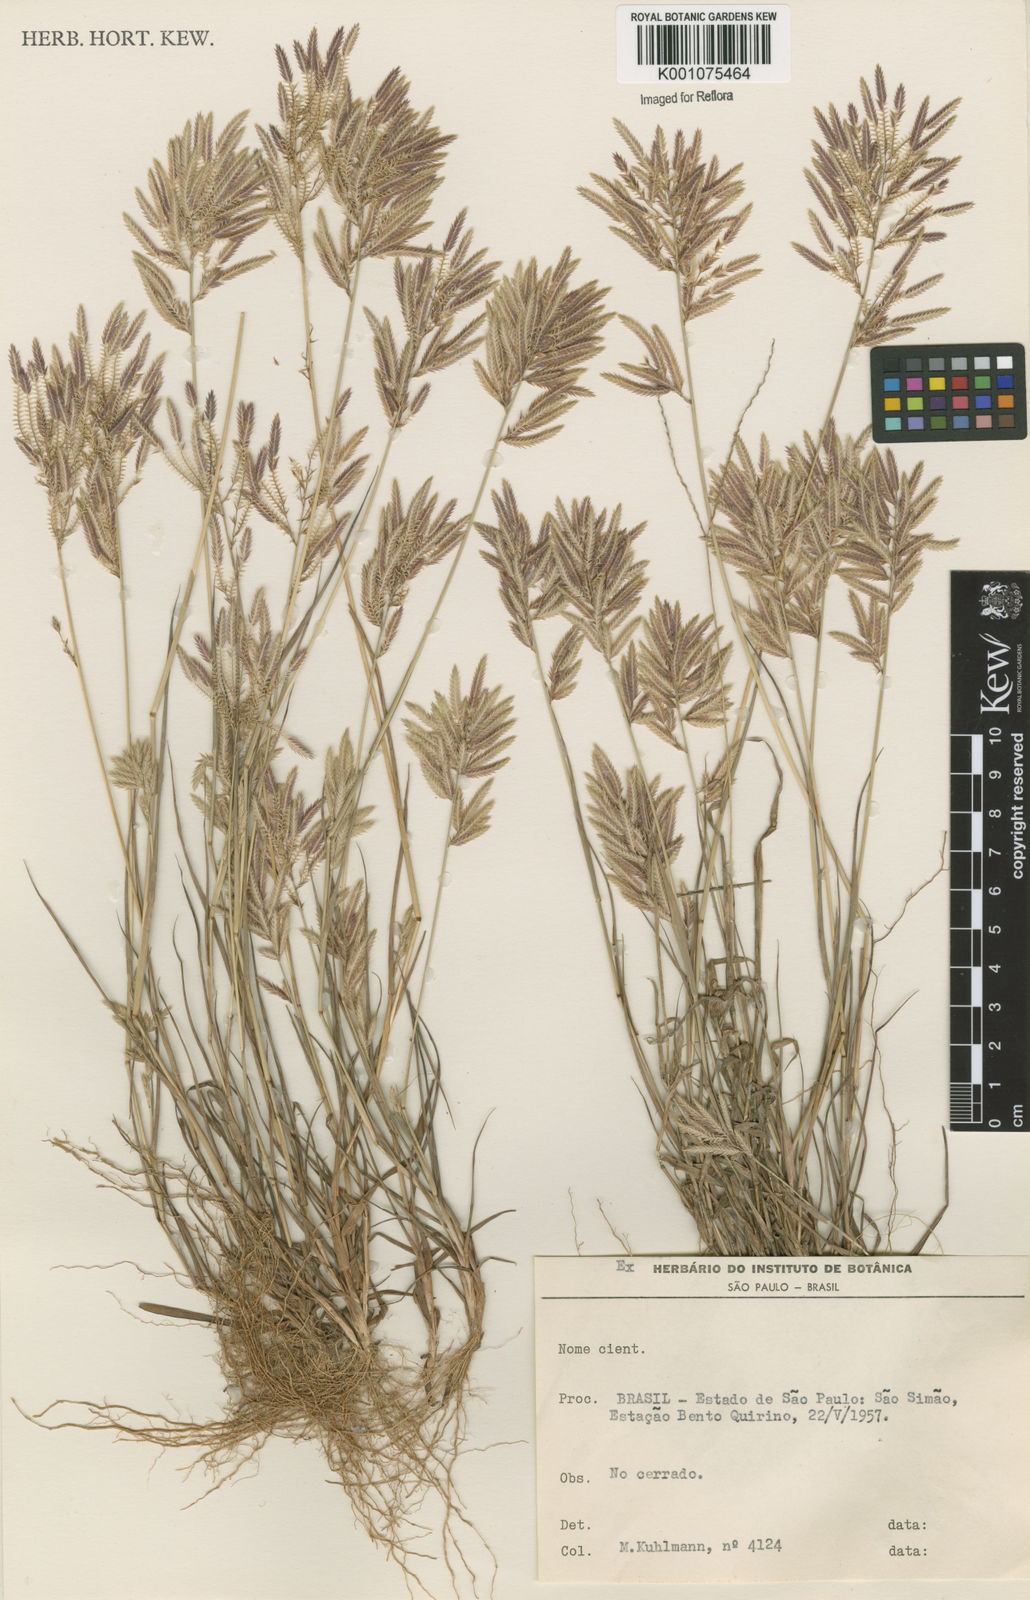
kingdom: Plantae
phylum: Tracheophyta
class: Liliopsida
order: Poales
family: Poaceae
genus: Eragrostis
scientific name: Eragrostis maypurensis
